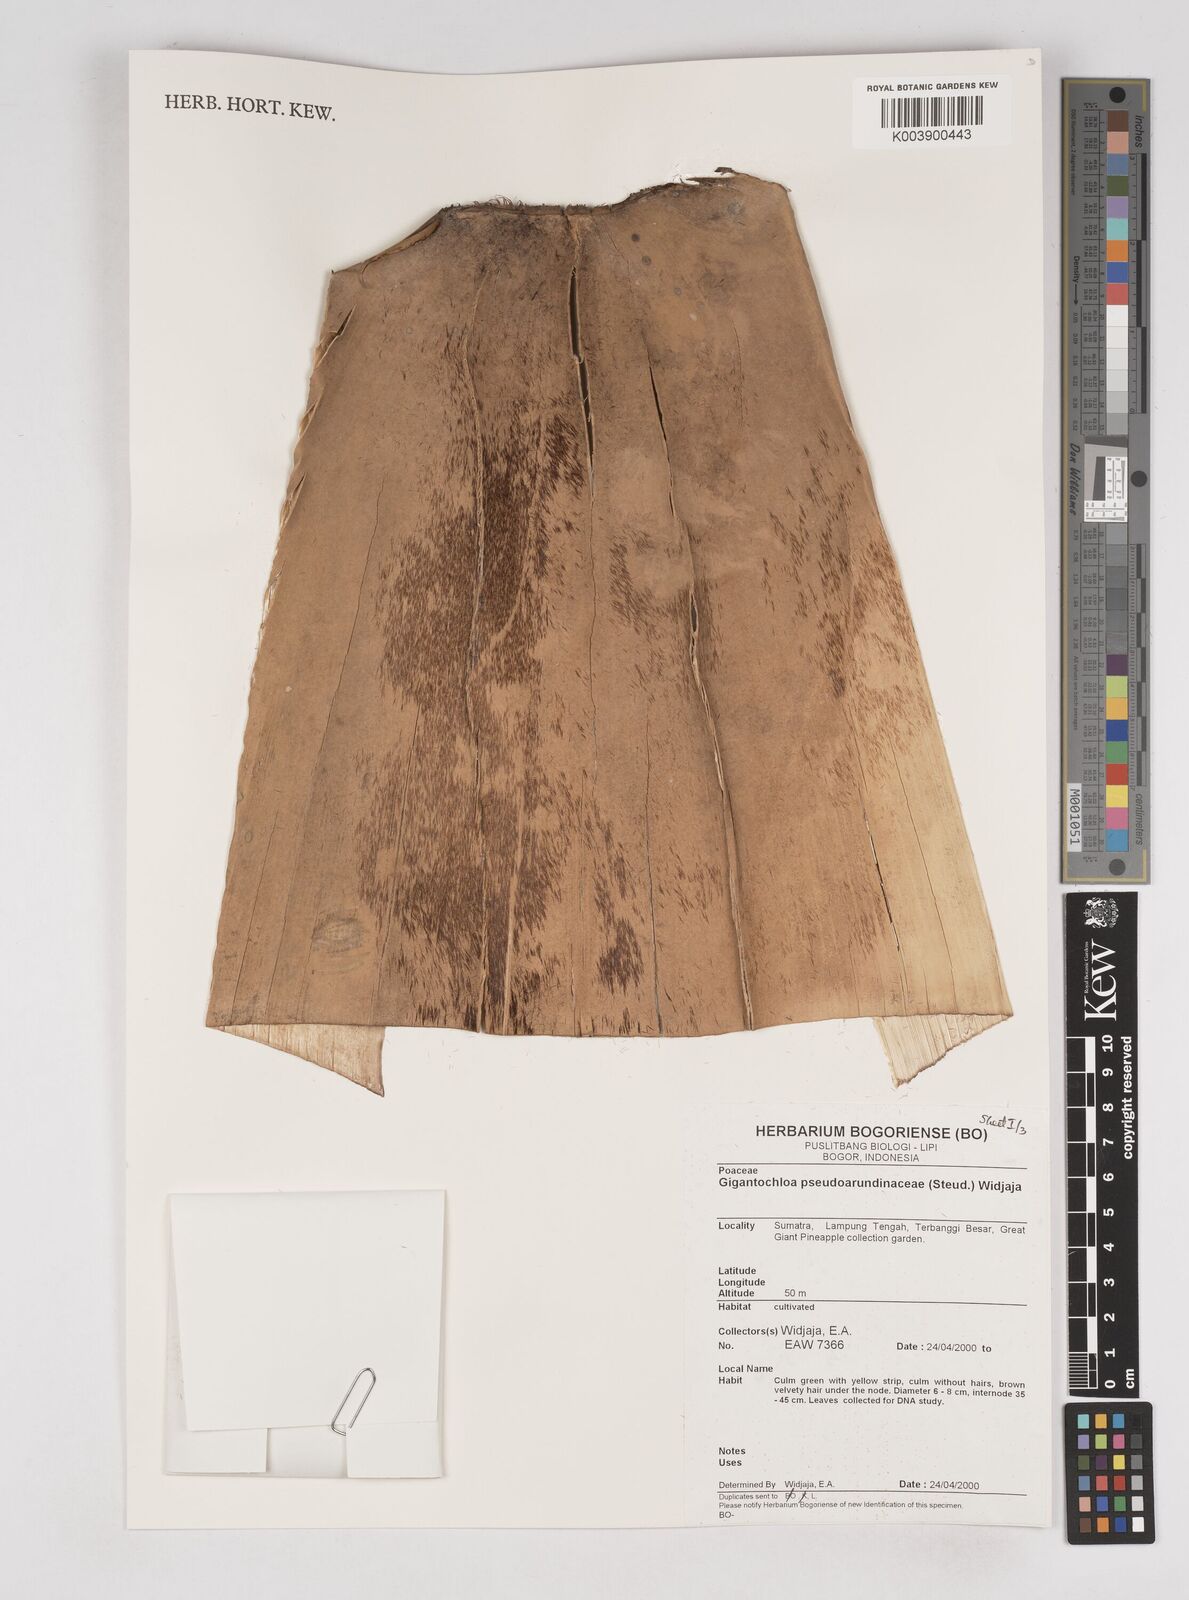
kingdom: Plantae
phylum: Tracheophyta
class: Liliopsida
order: Poales
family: Poaceae
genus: Gigantochloa
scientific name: Gigantochloa verticillata
